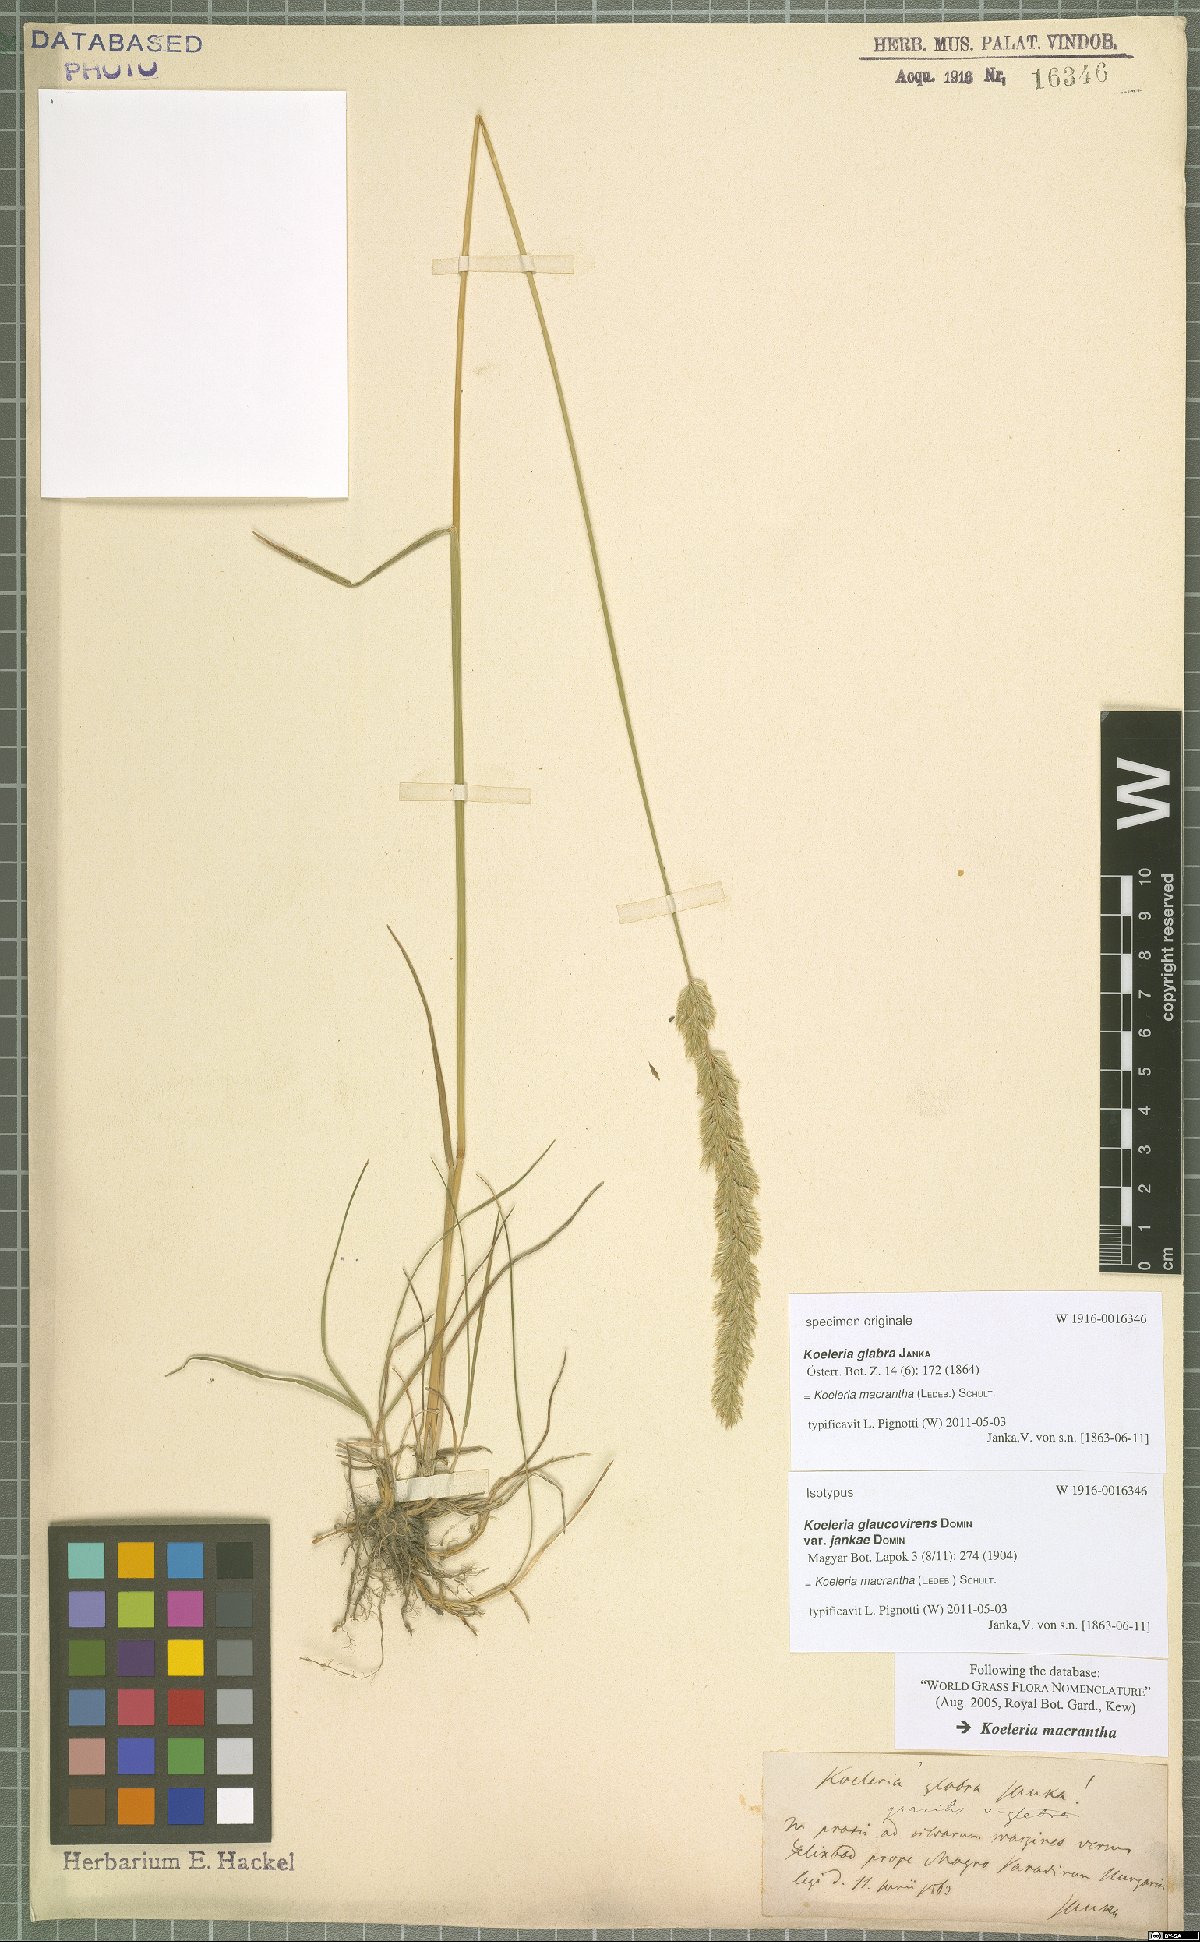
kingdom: Plantae
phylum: Tracheophyta
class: Liliopsida
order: Poales
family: Poaceae
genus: Koeleria
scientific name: Koeleria macrantha
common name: Crested hair-grass
